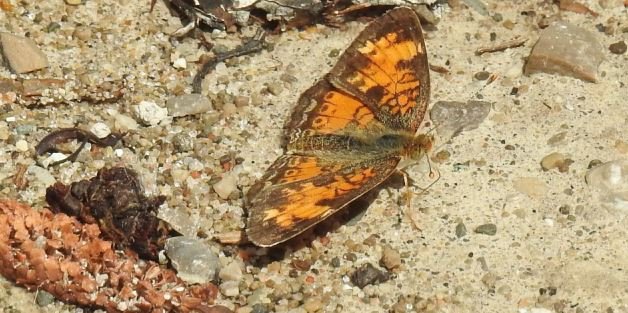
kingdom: Animalia
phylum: Arthropoda
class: Insecta
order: Lepidoptera
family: Nymphalidae
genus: Phyciodes
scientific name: Phyciodes tharos
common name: Northern Crescent
